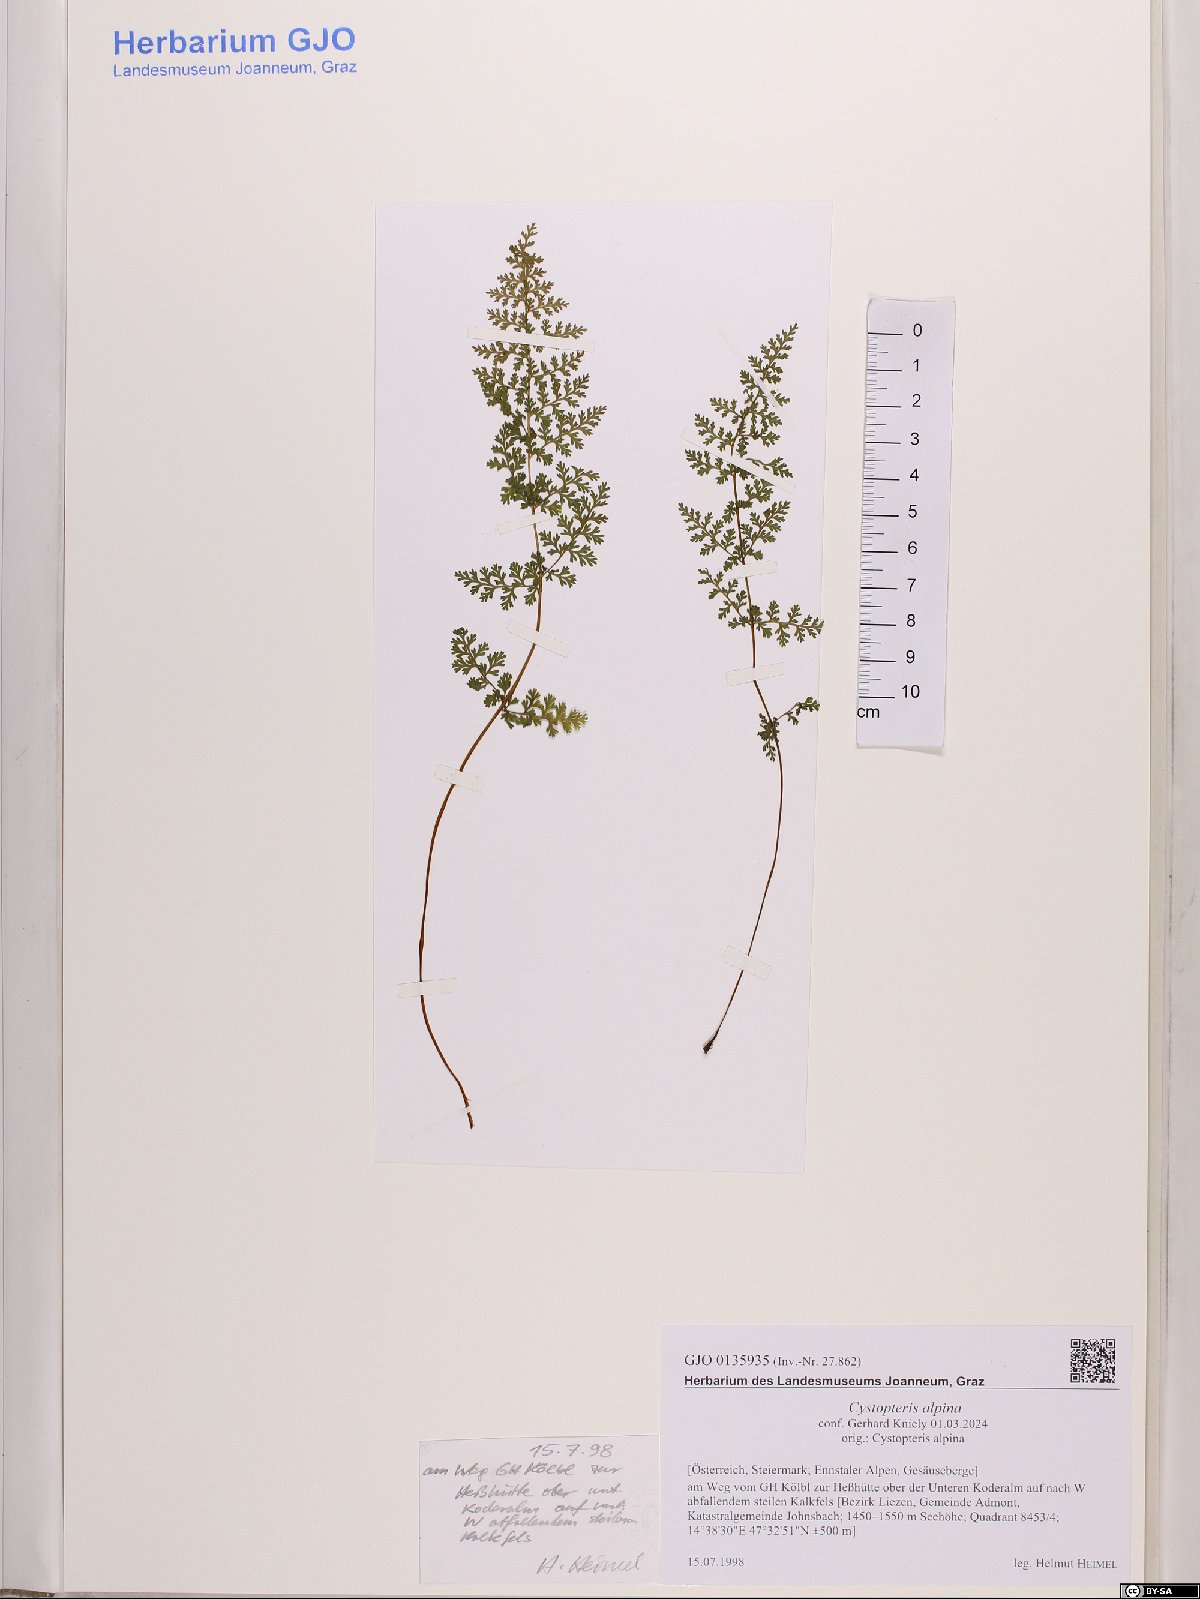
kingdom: Plantae
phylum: Tracheophyta
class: Polypodiopsida
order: Polypodiales
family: Cystopteridaceae
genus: Cystopteris
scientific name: Cystopteris alpina
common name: Alpine bladder-fern
